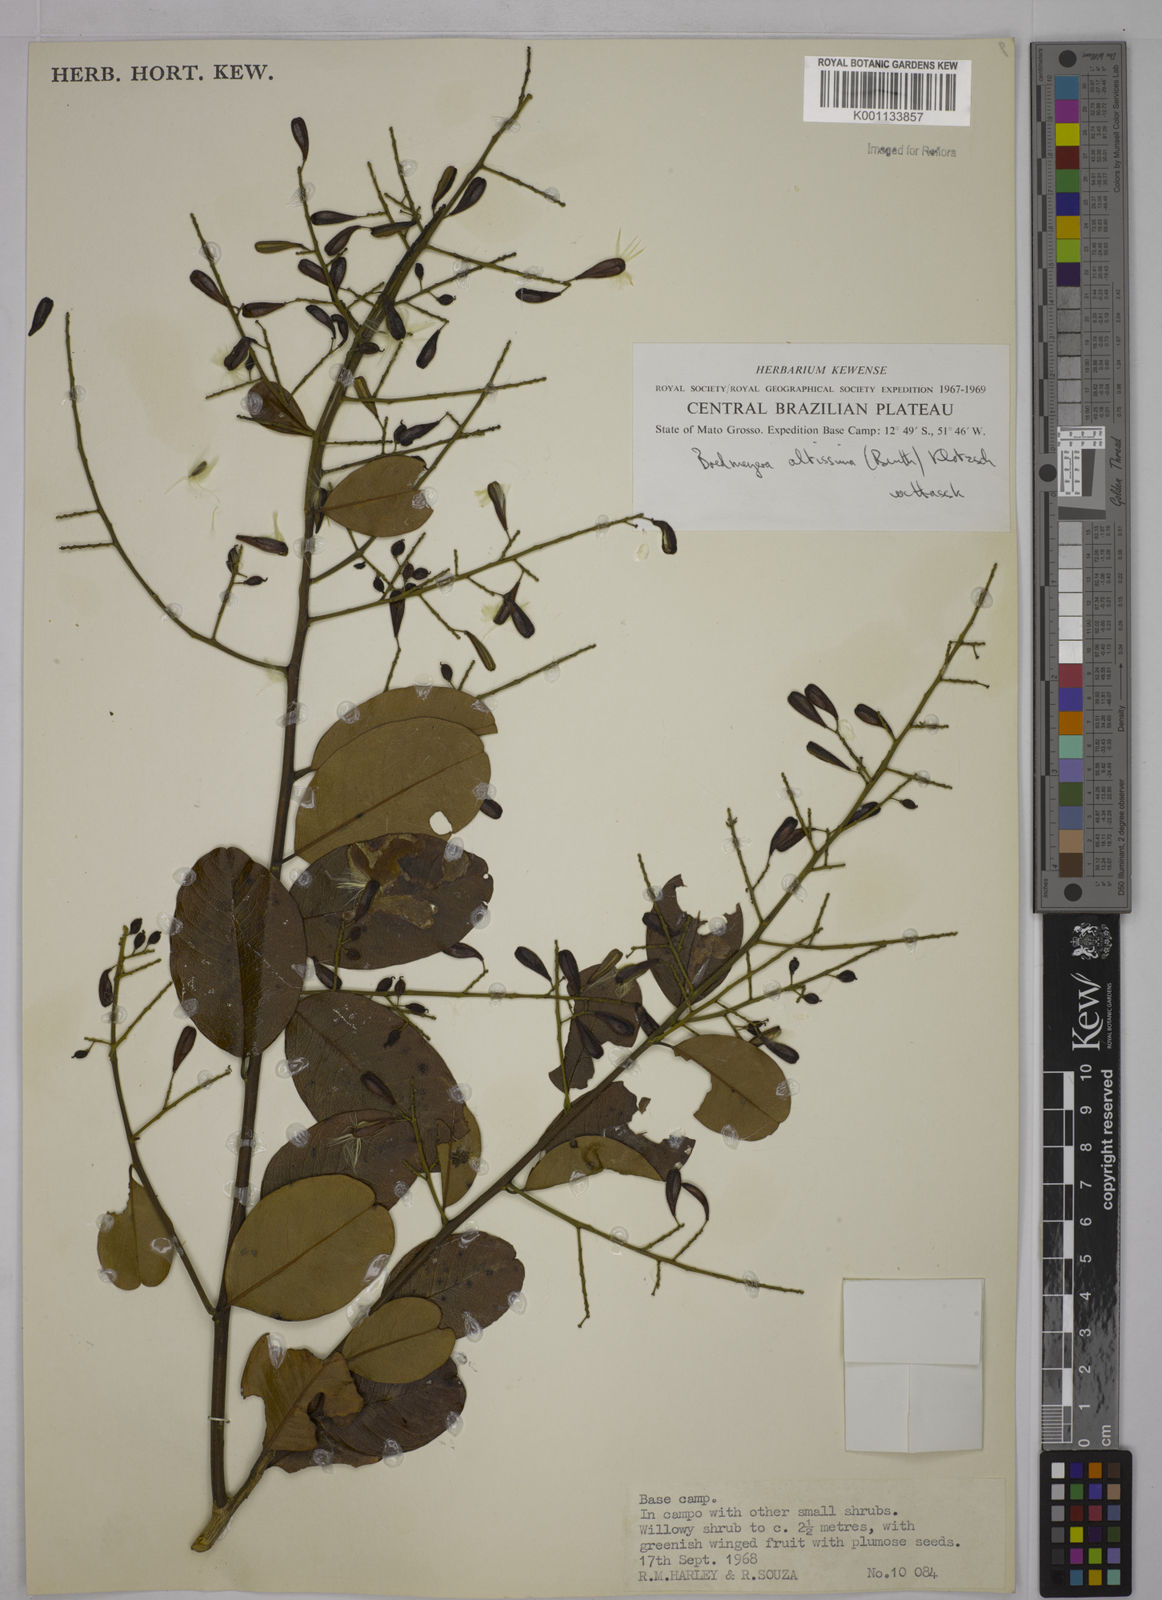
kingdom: Plantae
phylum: Tracheophyta
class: Magnoliopsida
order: Fabales
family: Polygalaceae
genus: Bredemeyera
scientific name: Bredemeyera divaricata
